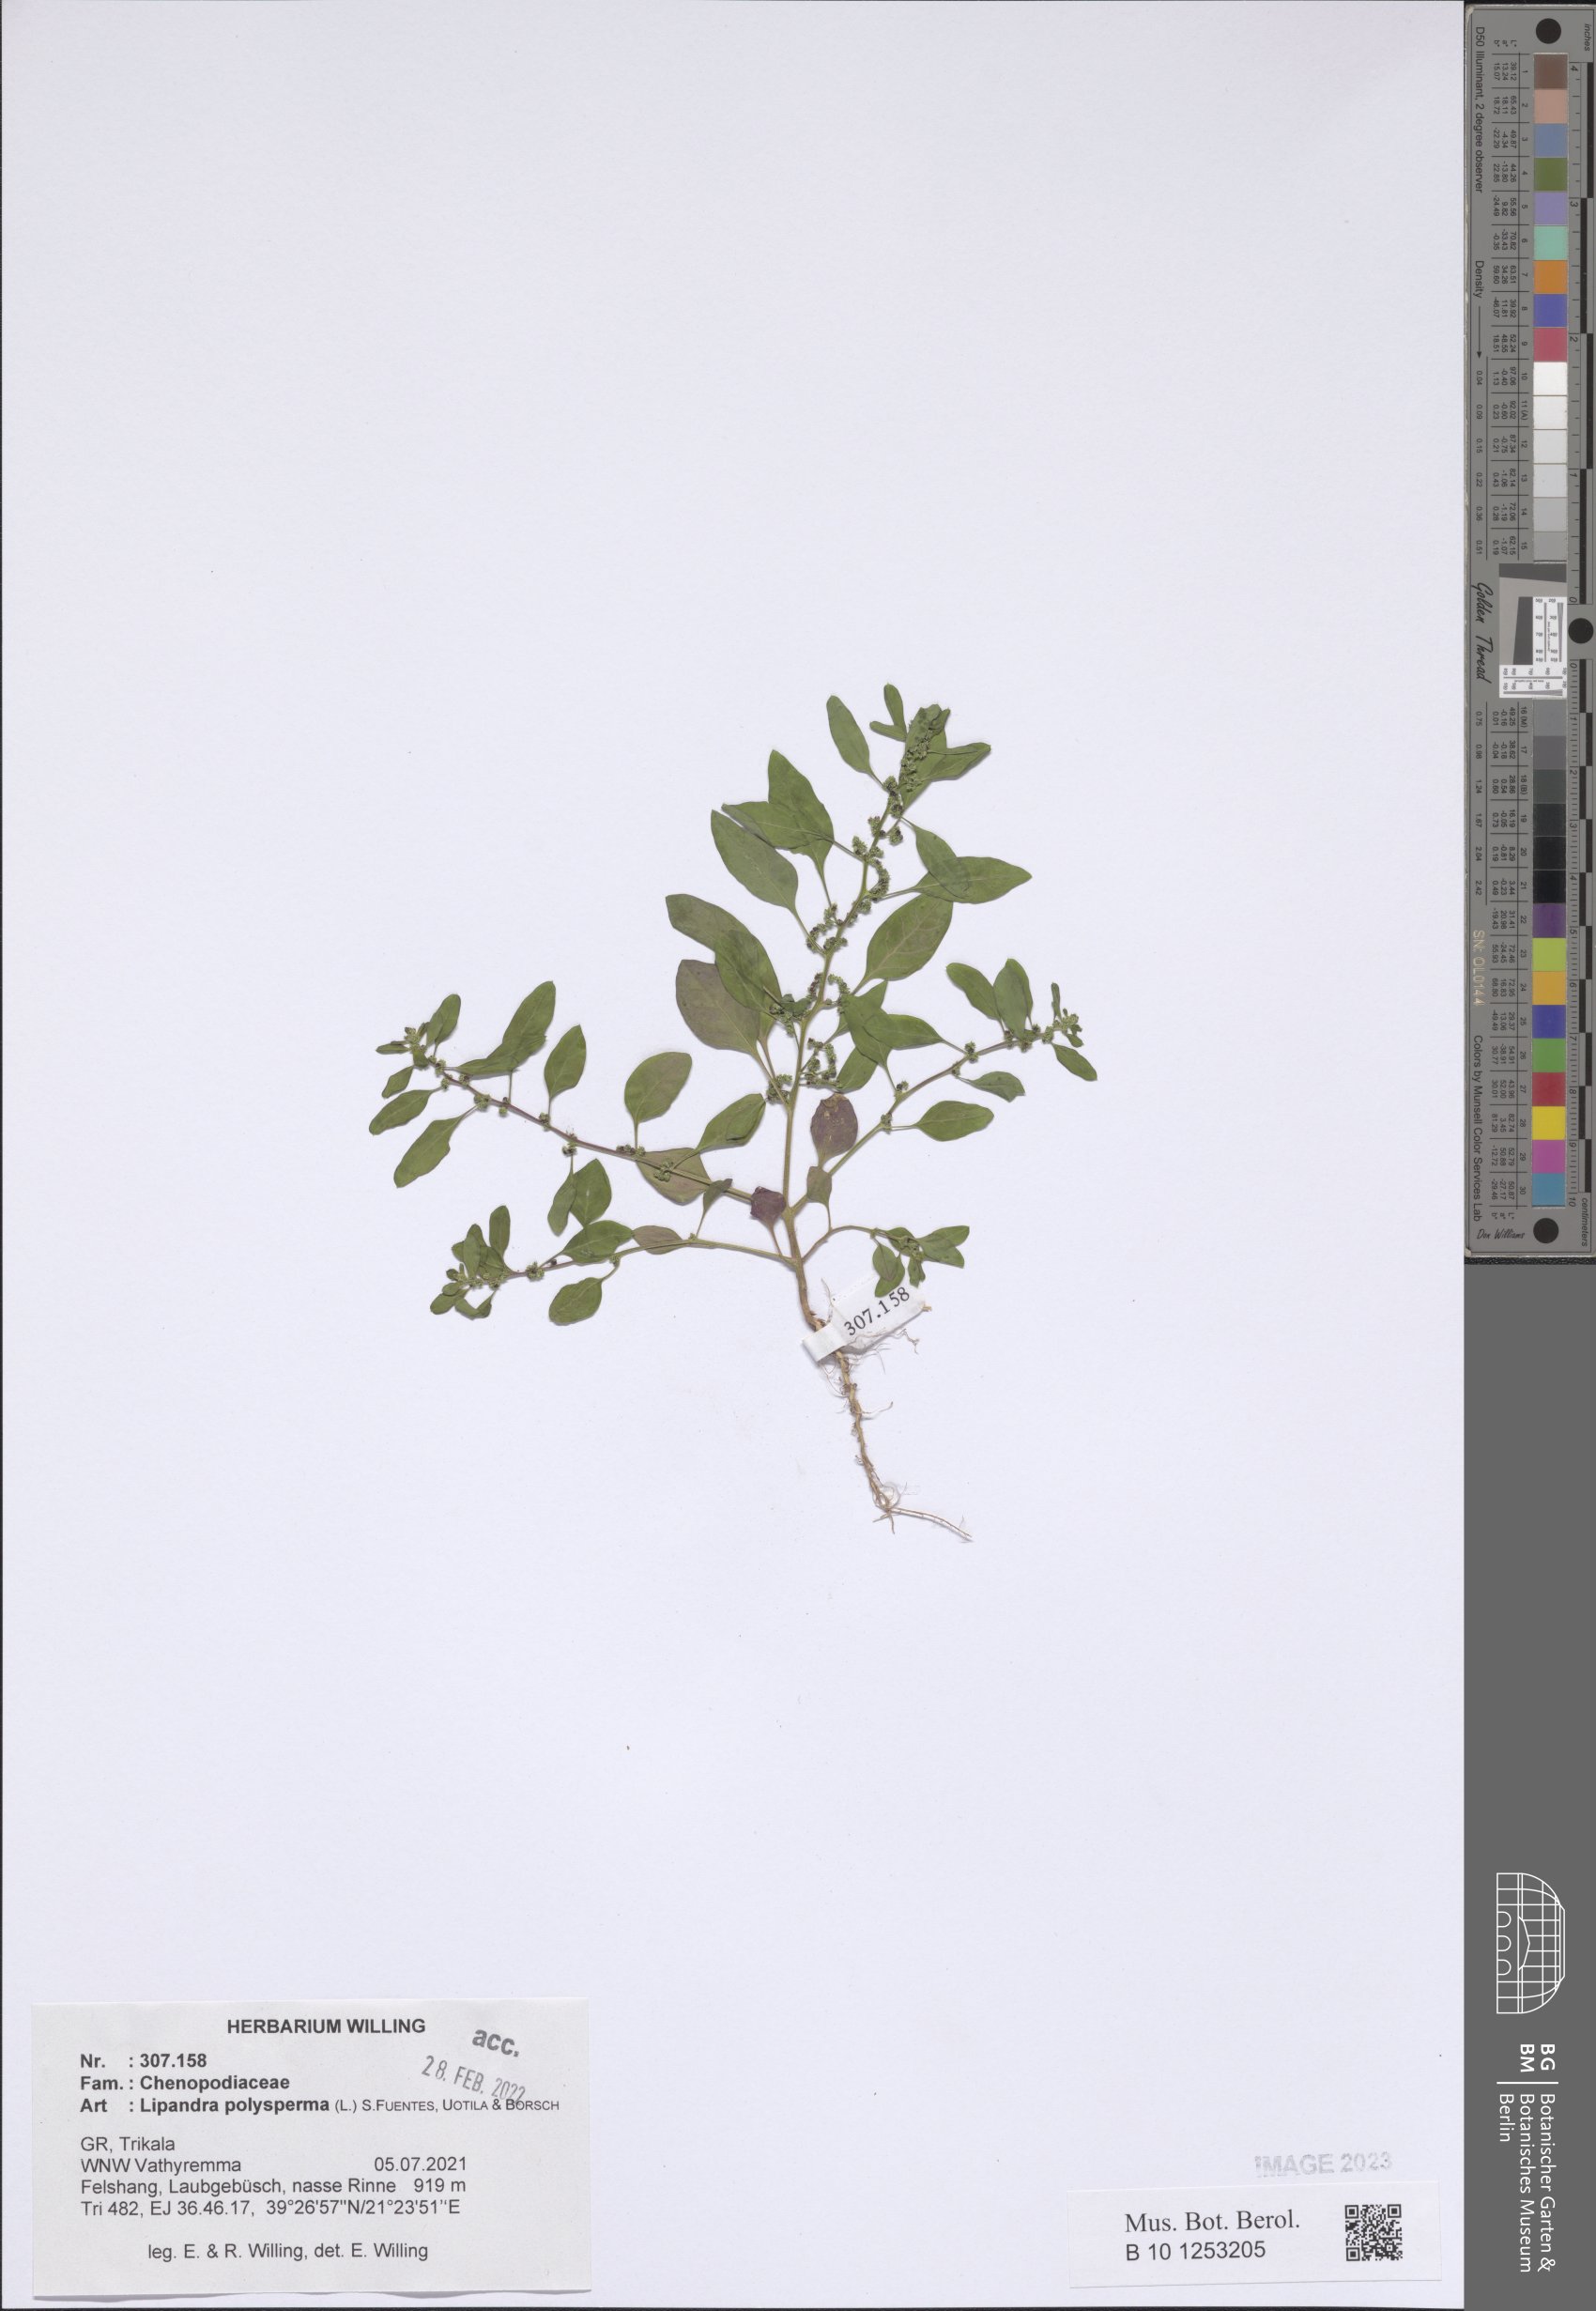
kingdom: Plantae
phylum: Tracheophyta
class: Magnoliopsida
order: Caryophyllales
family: Amaranthaceae
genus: Lipandra
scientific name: Lipandra polysperma
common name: Many-seed goosefoot
